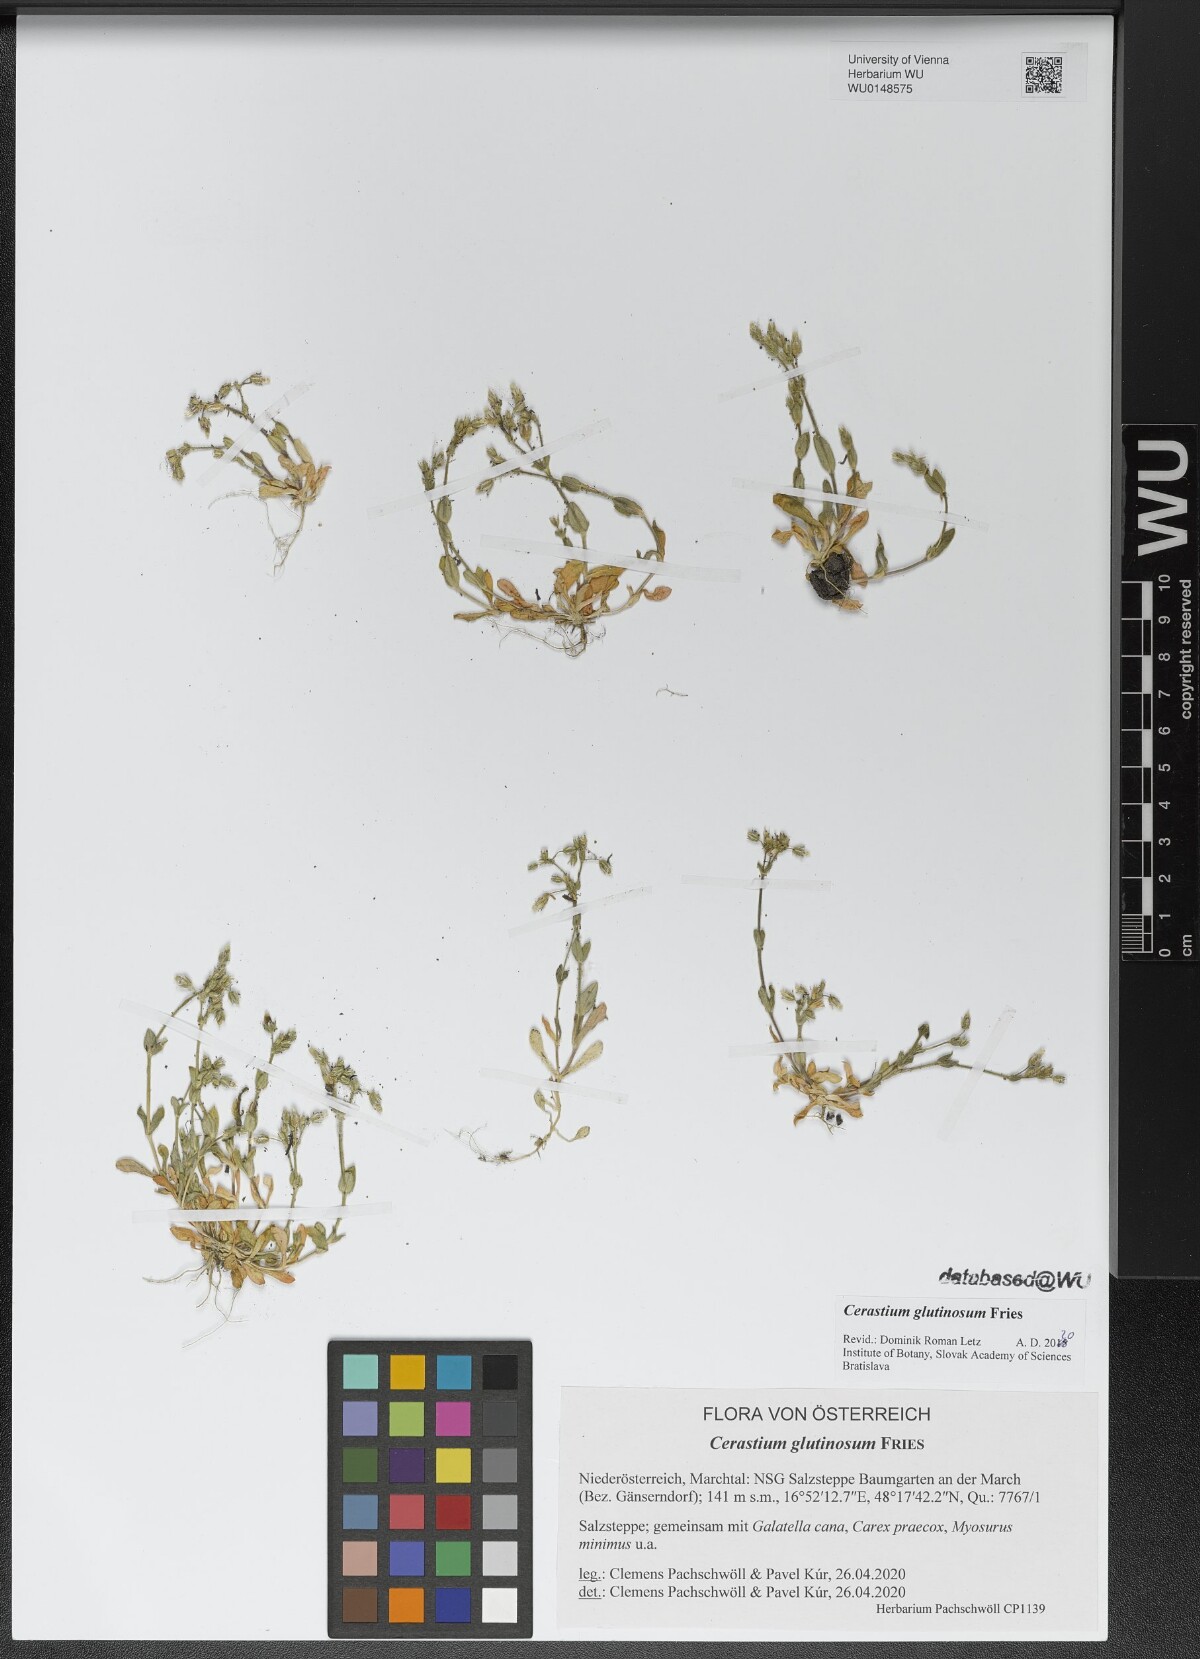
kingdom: Plantae
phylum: Tracheophyta
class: Magnoliopsida
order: Caryophyllales
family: Caryophyllaceae
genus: Cerastium
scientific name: Cerastium glutinosum
